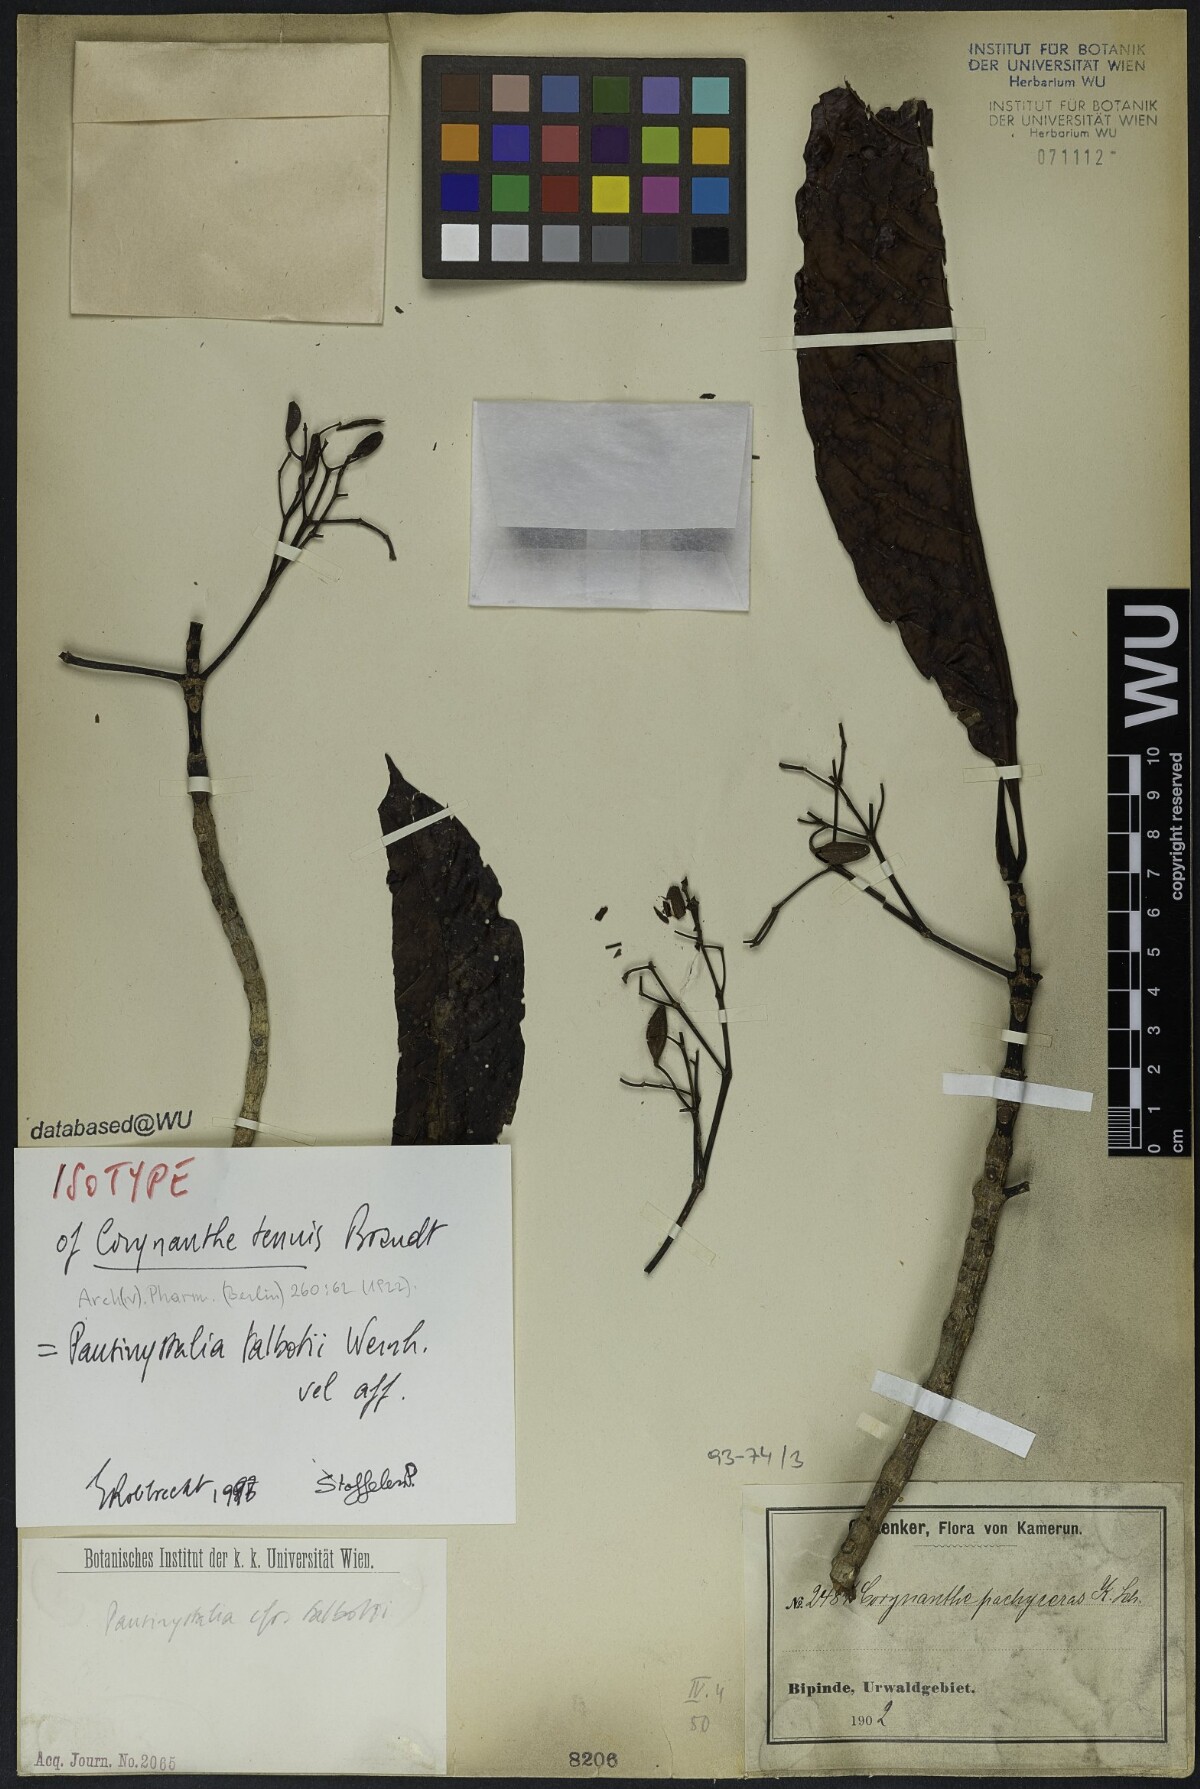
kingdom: Plantae
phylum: Tracheophyta
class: Magnoliopsida
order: Gentianales
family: Rubiaceae
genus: Corynanthe
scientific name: Corynanthe talbotii
